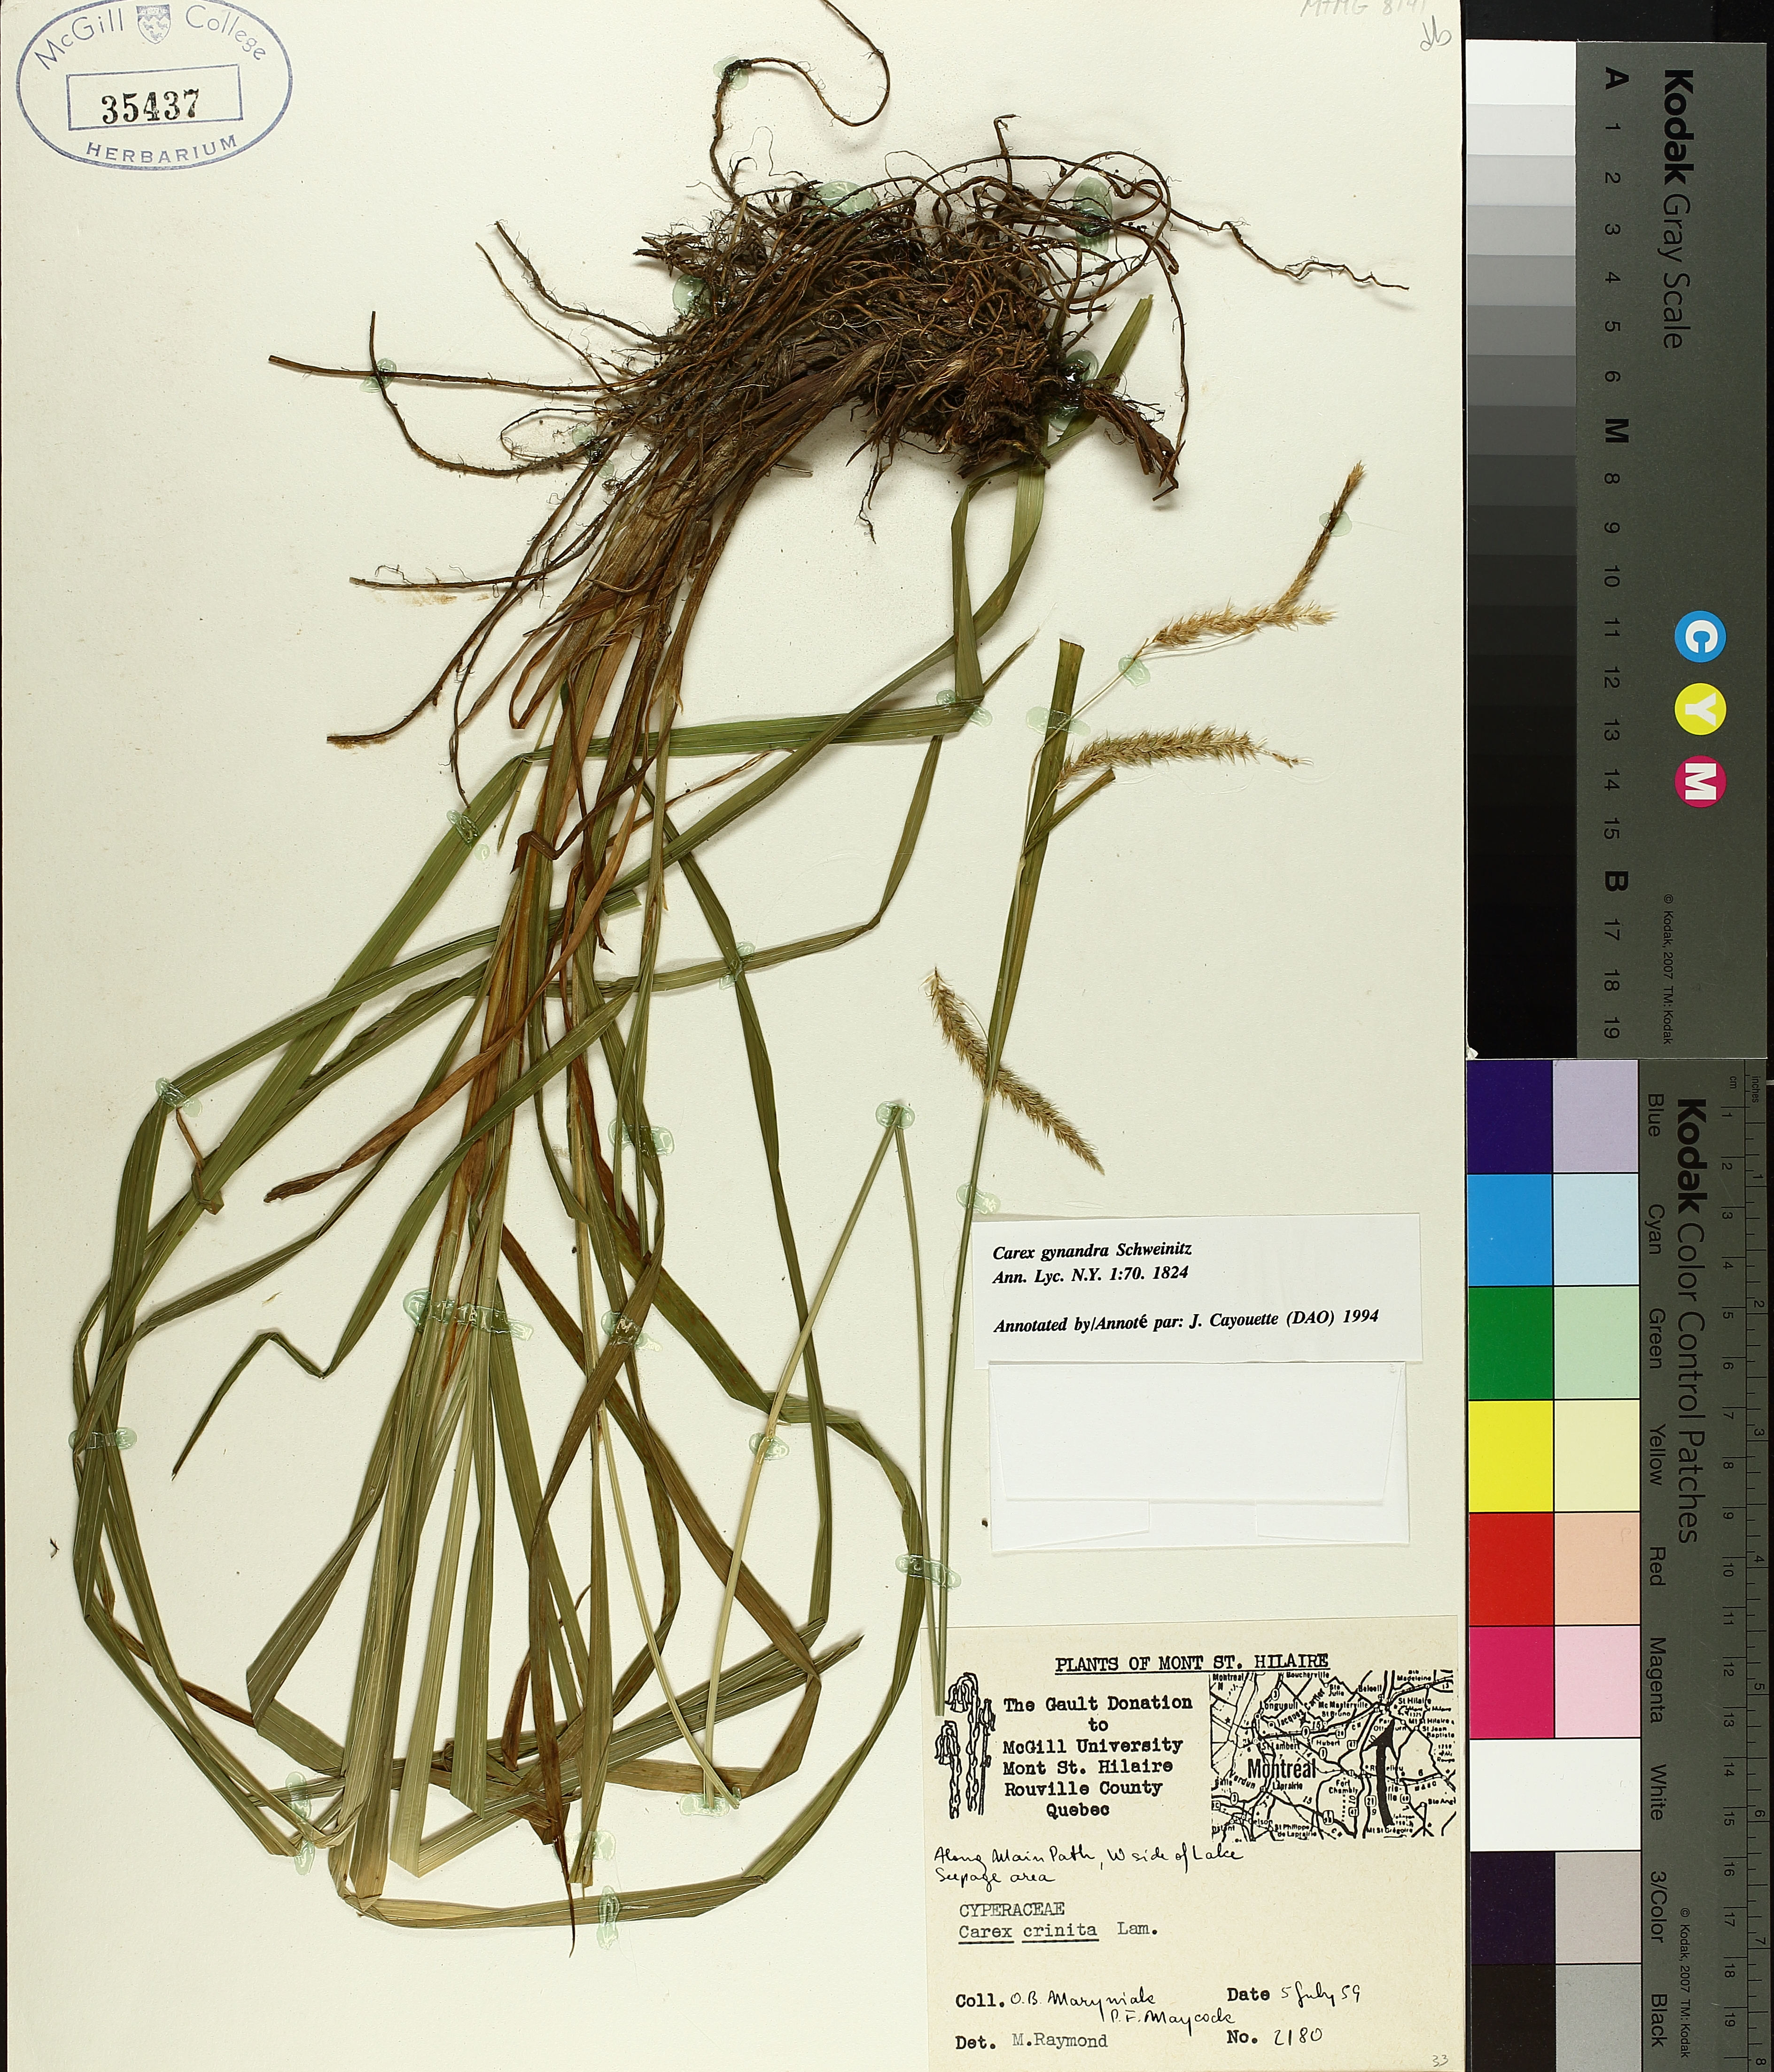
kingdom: Plantae
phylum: Tracheophyta
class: Liliopsida
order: Poales
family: Cyperaceae
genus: Carex
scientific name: Carex gynandra
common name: Nodding sedge
